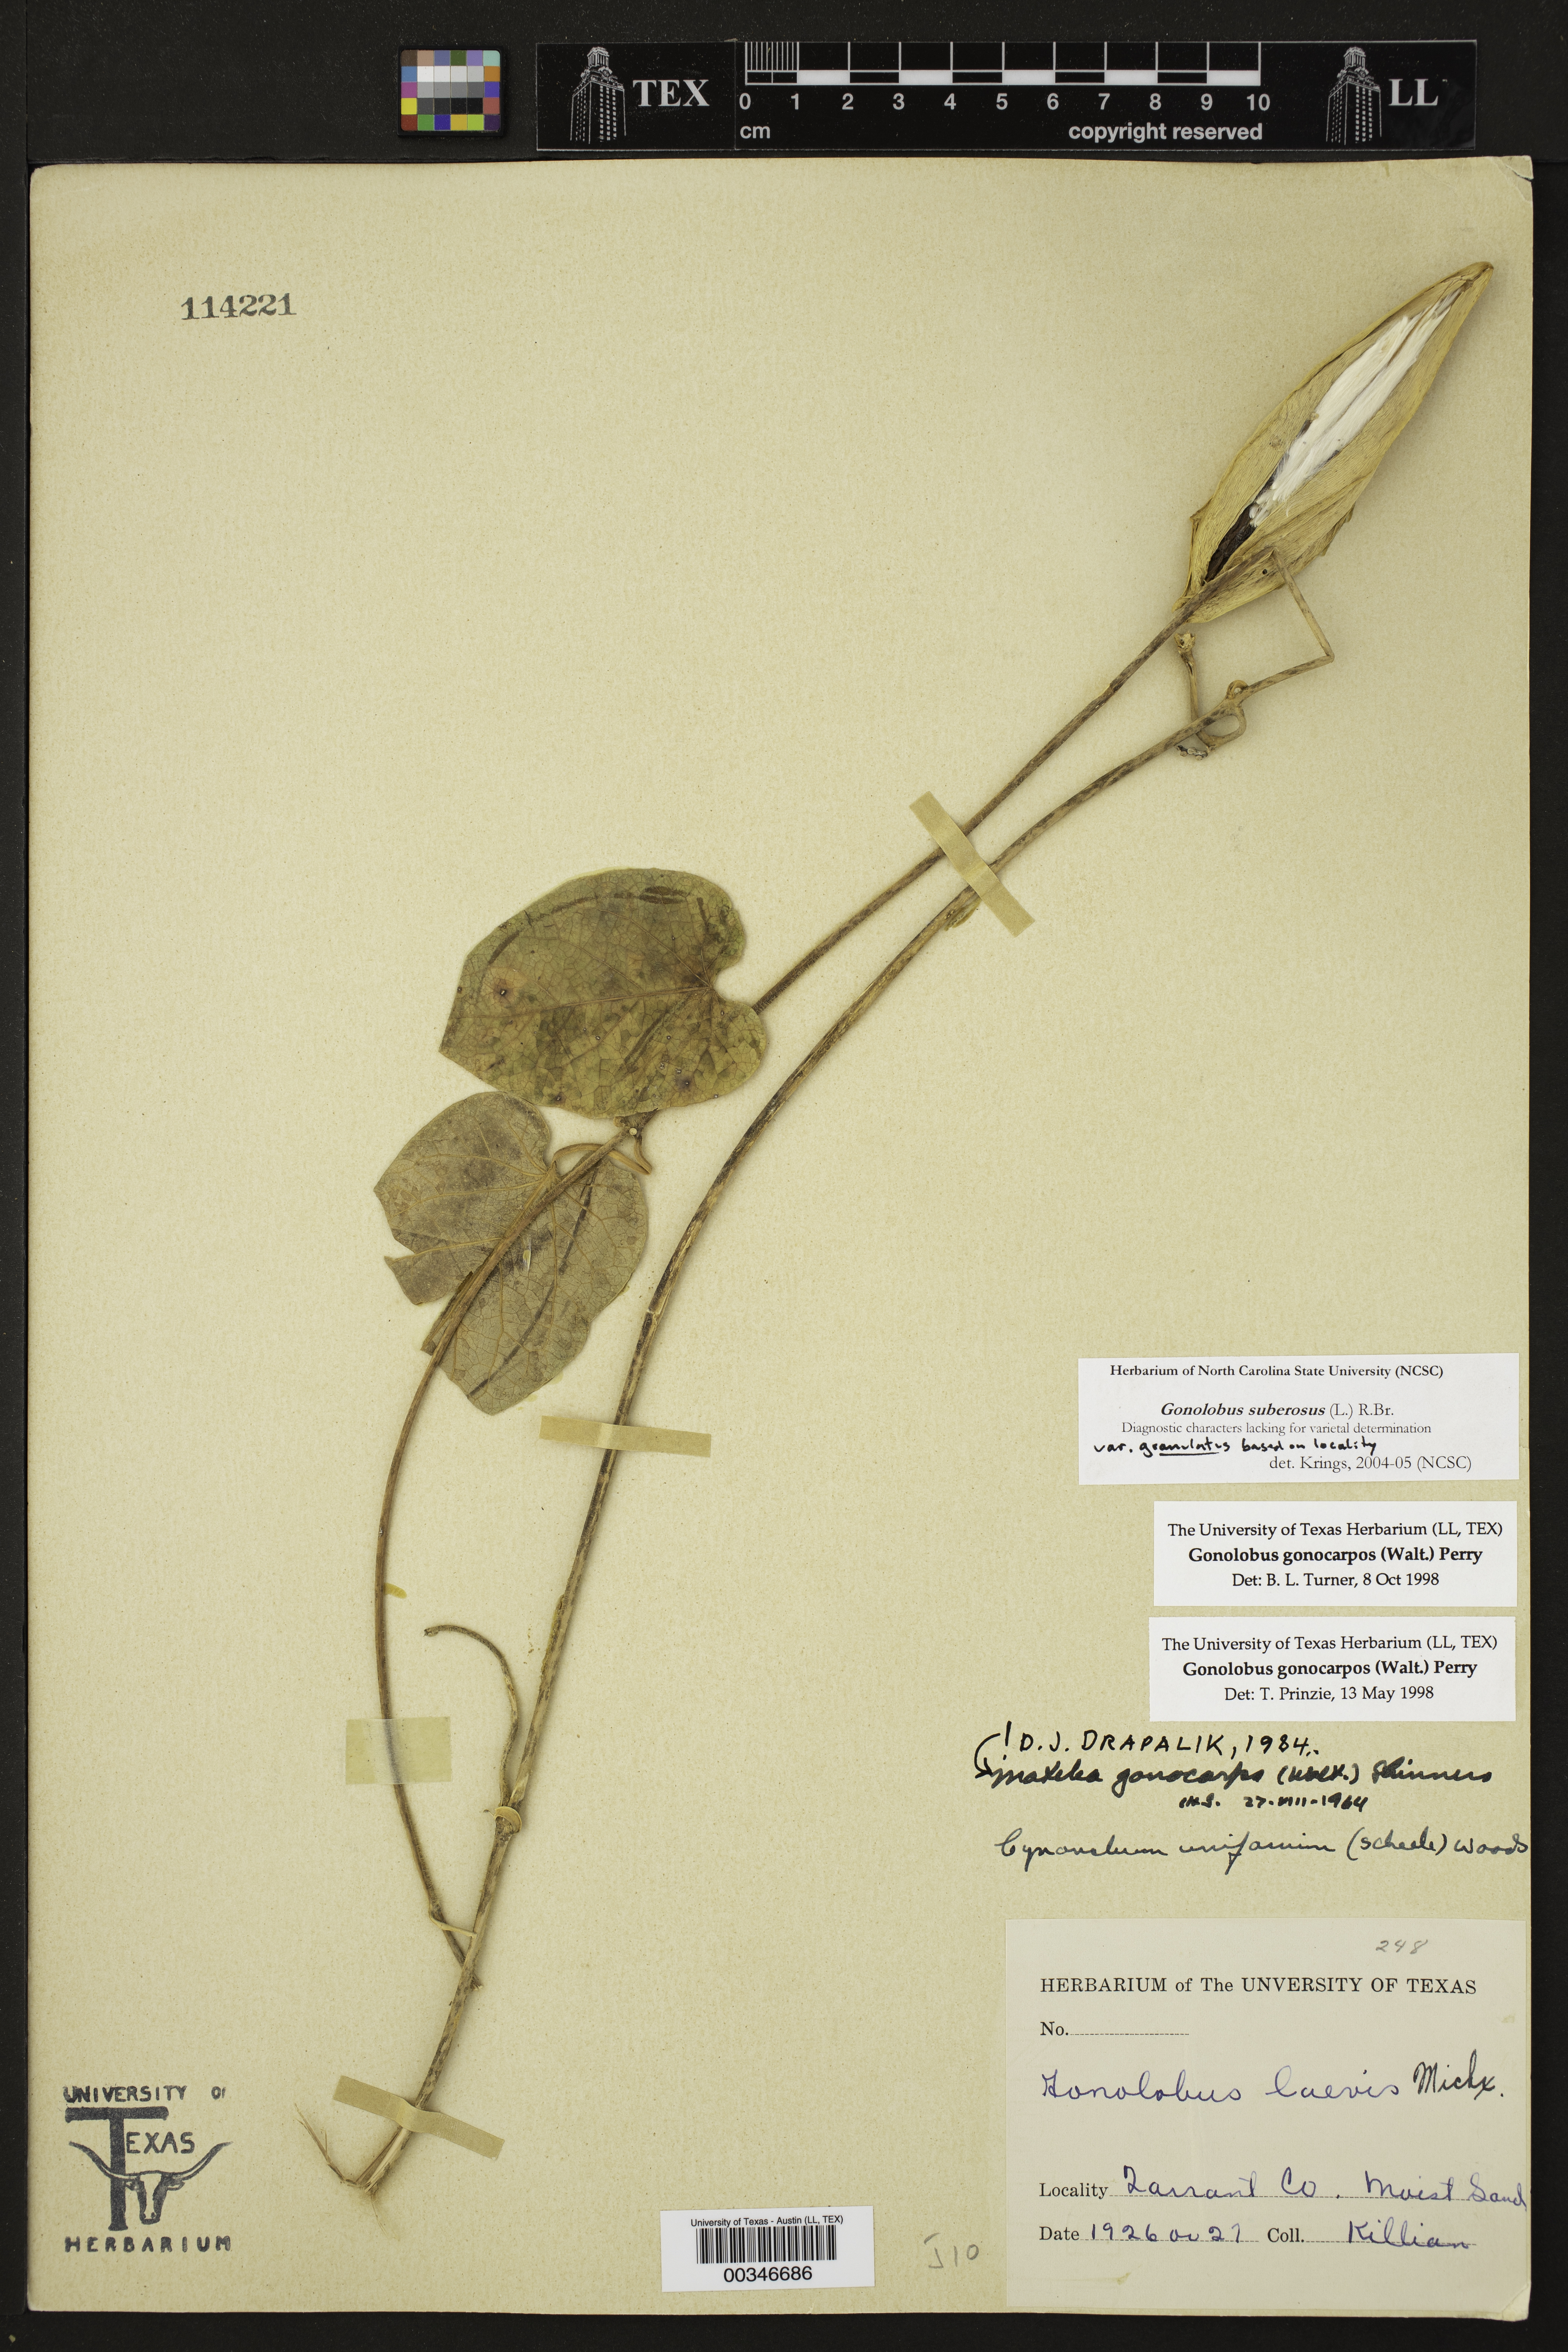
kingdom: Plantae
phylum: Tracheophyta
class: Magnoliopsida
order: Gentianales
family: Apocynaceae
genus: Gonolobus
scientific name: Gonolobus suberosus
